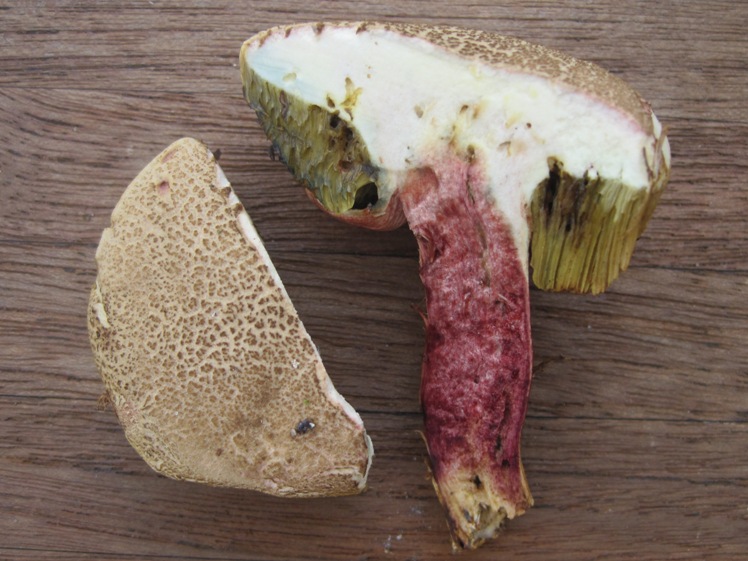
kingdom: Fungi
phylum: Basidiomycota
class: Agaricomycetes
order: Boletales
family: Boletaceae
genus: Xerocomellus
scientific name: Xerocomellus chrysenteron
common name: rødsprukken rørhat
